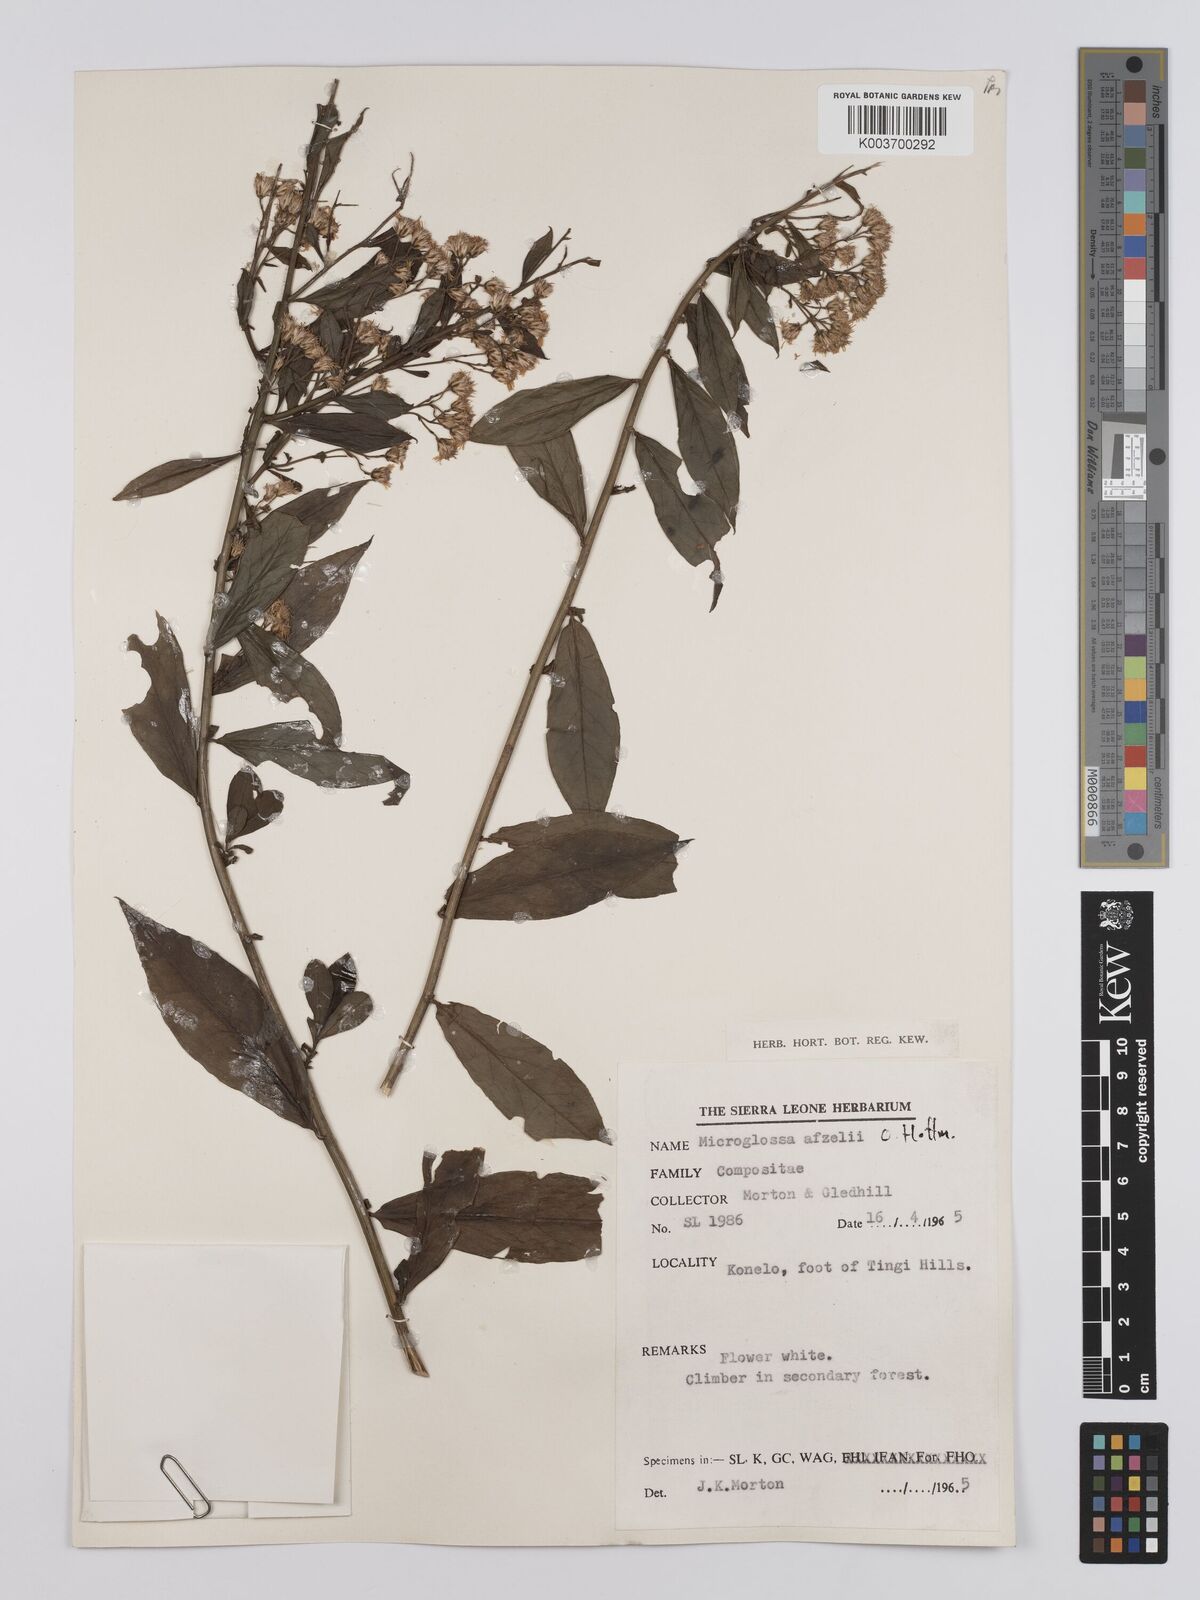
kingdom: Plantae
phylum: Tracheophyta
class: Magnoliopsida
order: Asterales
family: Asteraceae
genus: Microglossa
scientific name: Microglossa afzelii
